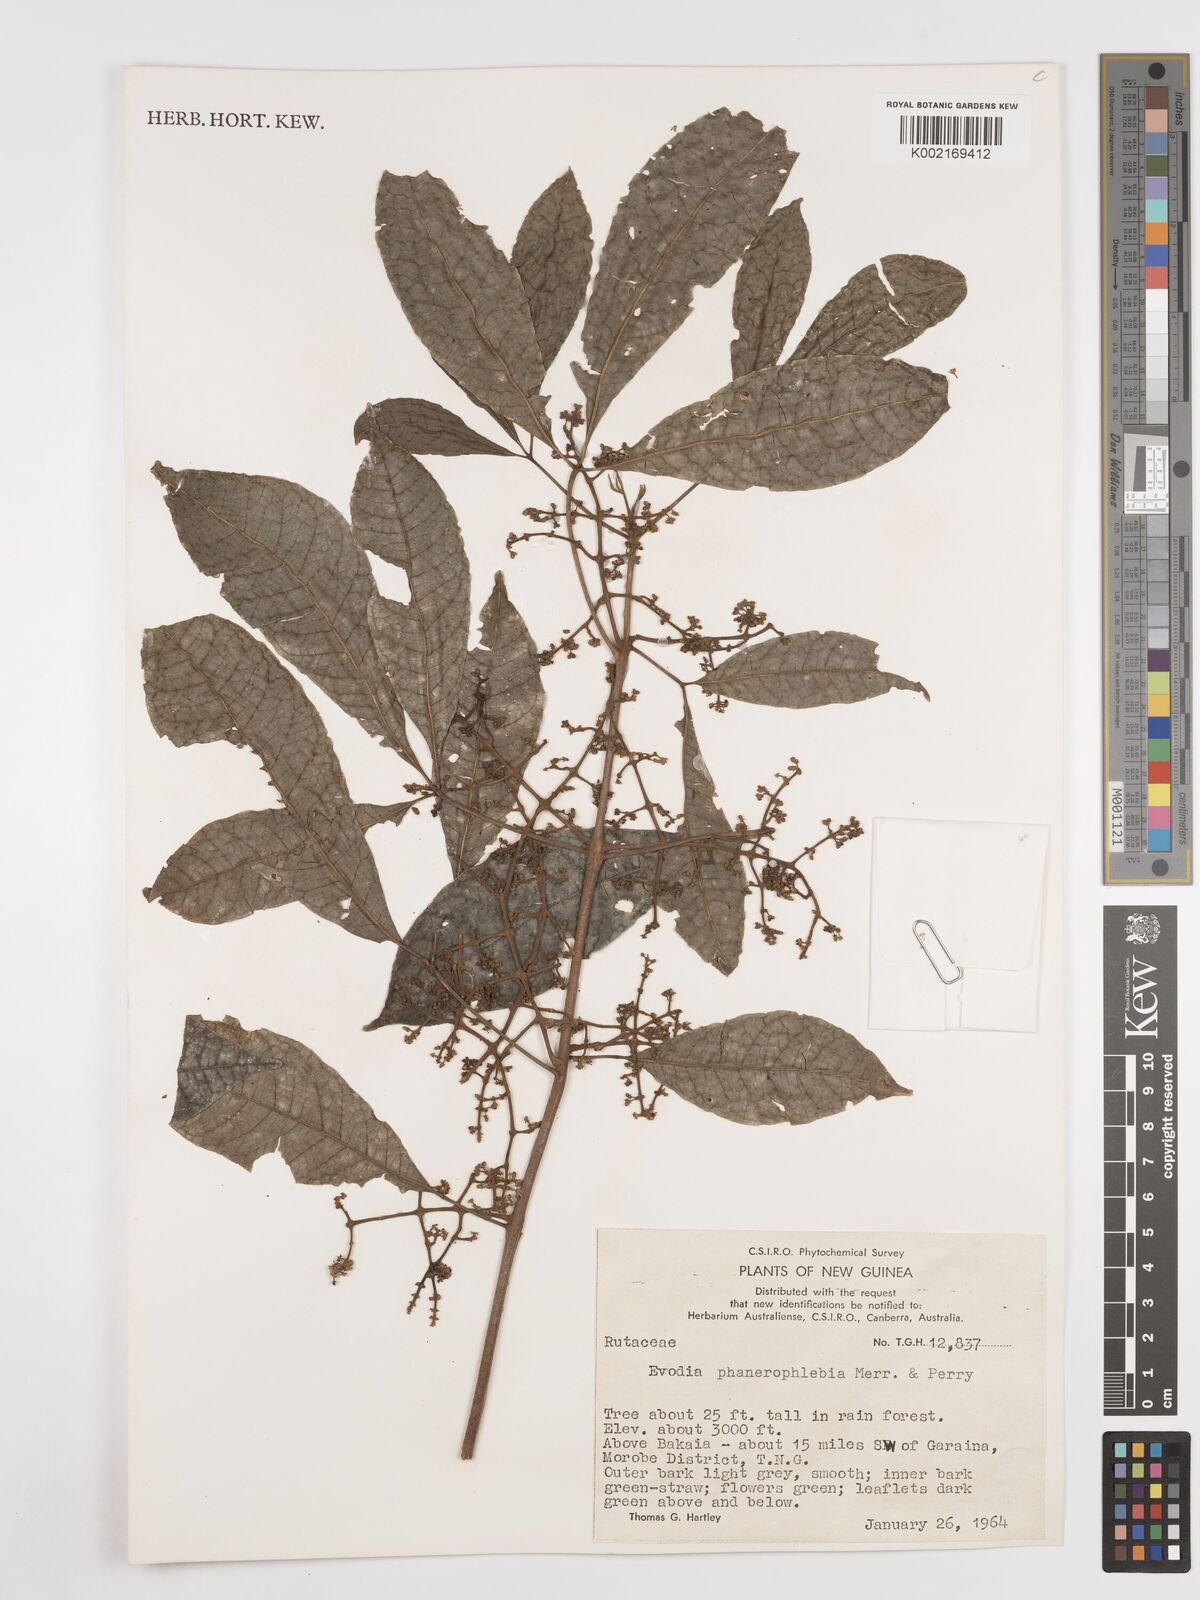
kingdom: Plantae
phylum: Tracheophyta
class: Magnoliopsida
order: Sapindales
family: Rutaceae
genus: Melicope
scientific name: Melicope phanerophlebia
